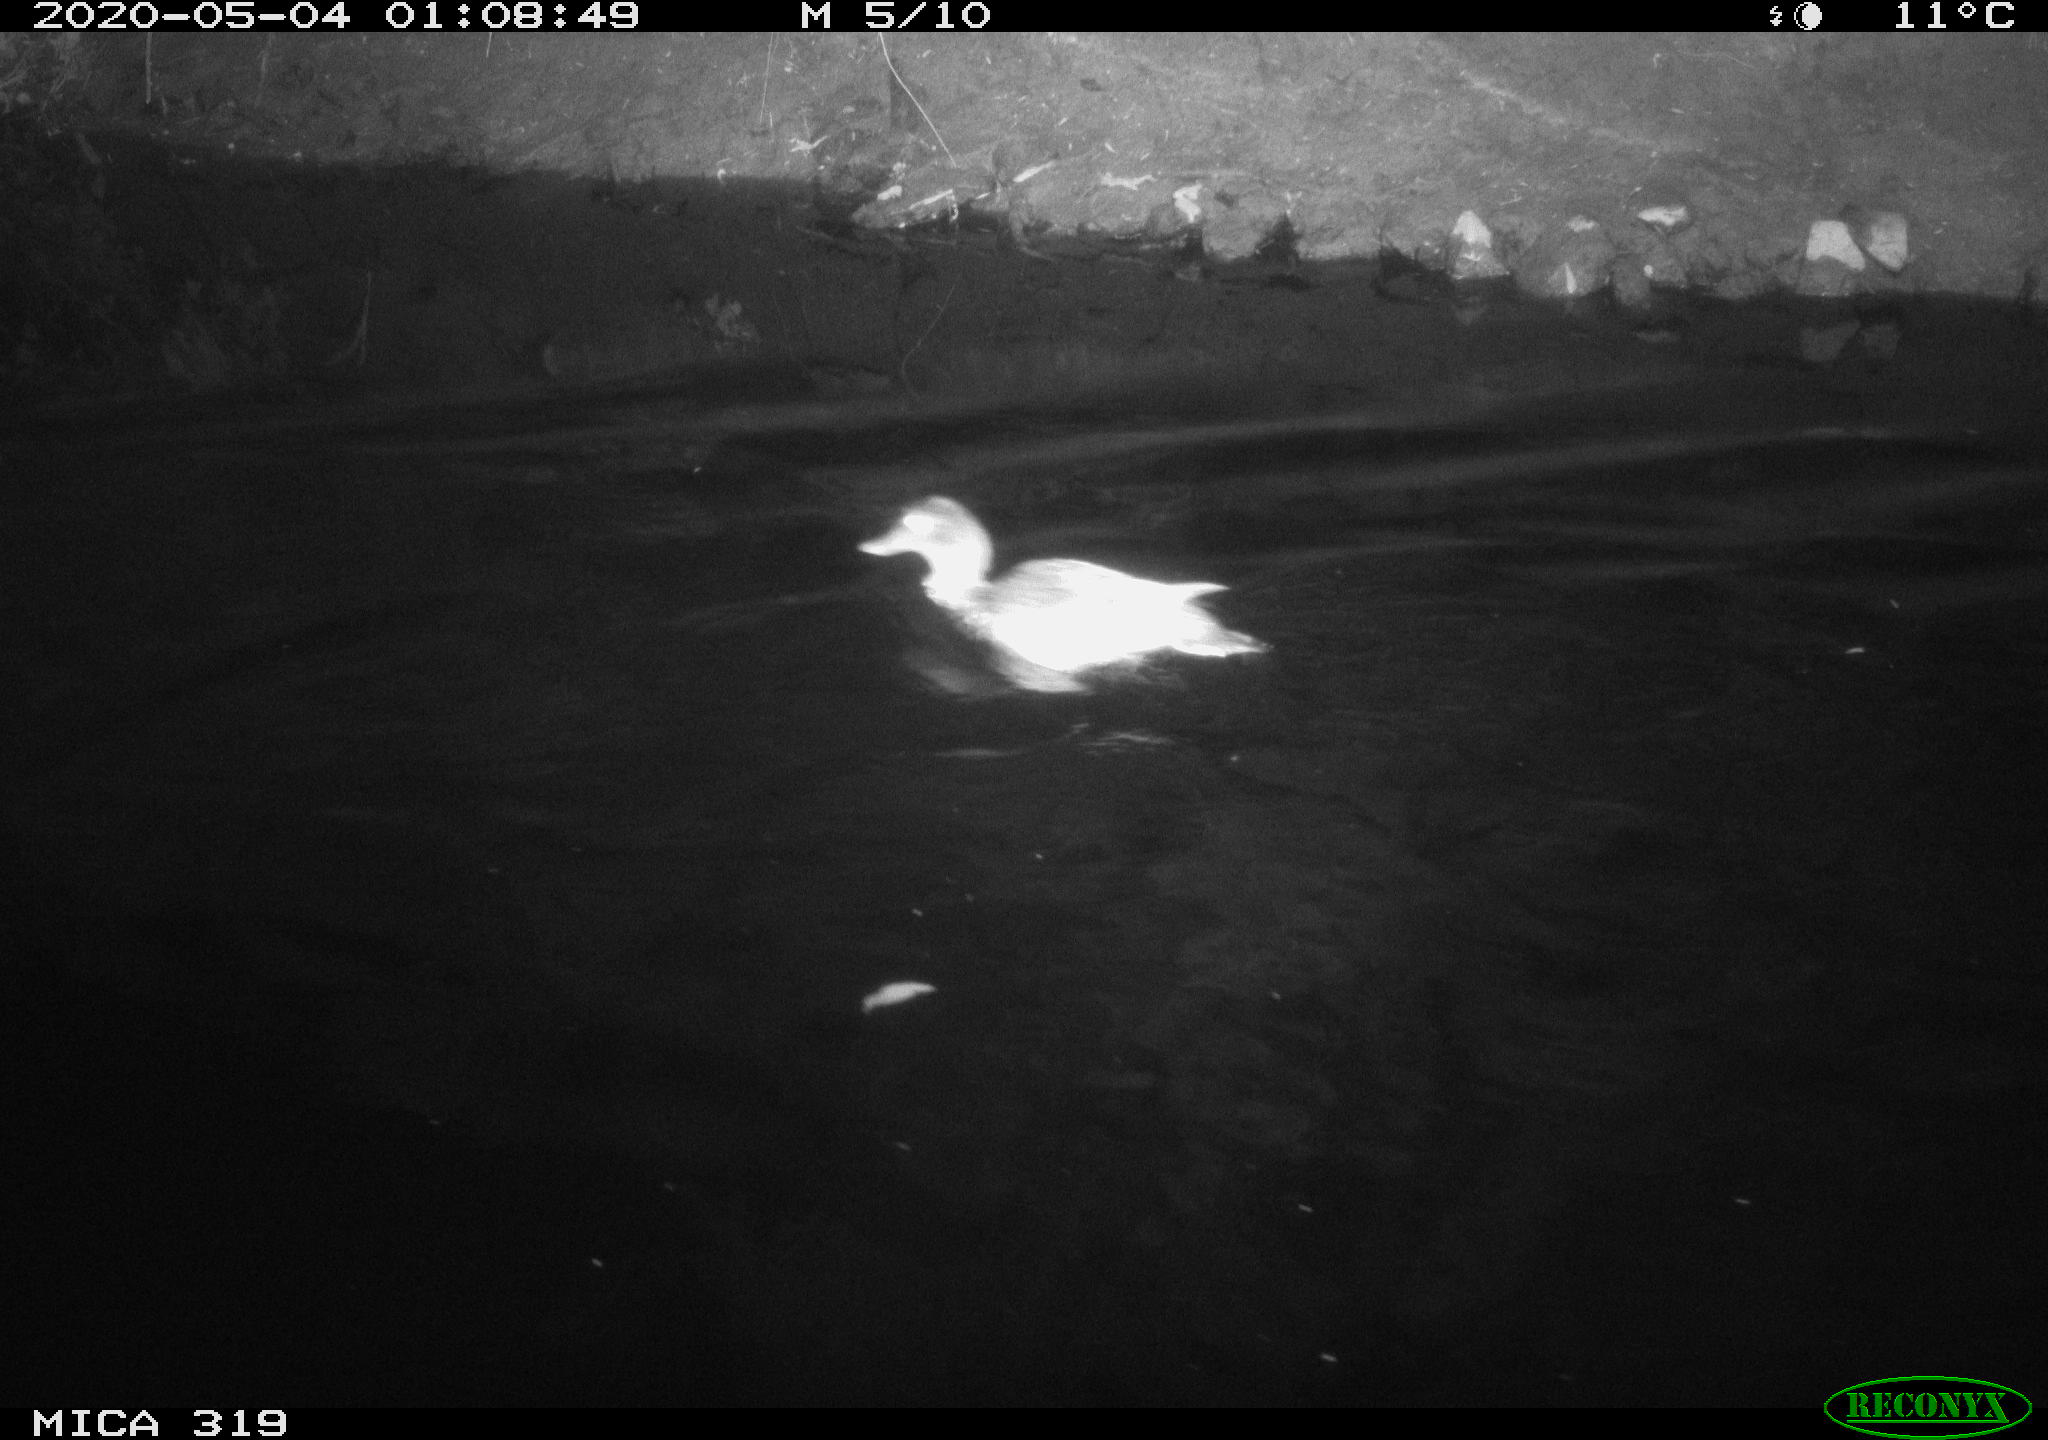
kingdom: Animalia
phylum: Chordata
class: Aves
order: Anseriformes
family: Anatidae
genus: Anas
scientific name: Anas platyrhynchos
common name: Mallard
